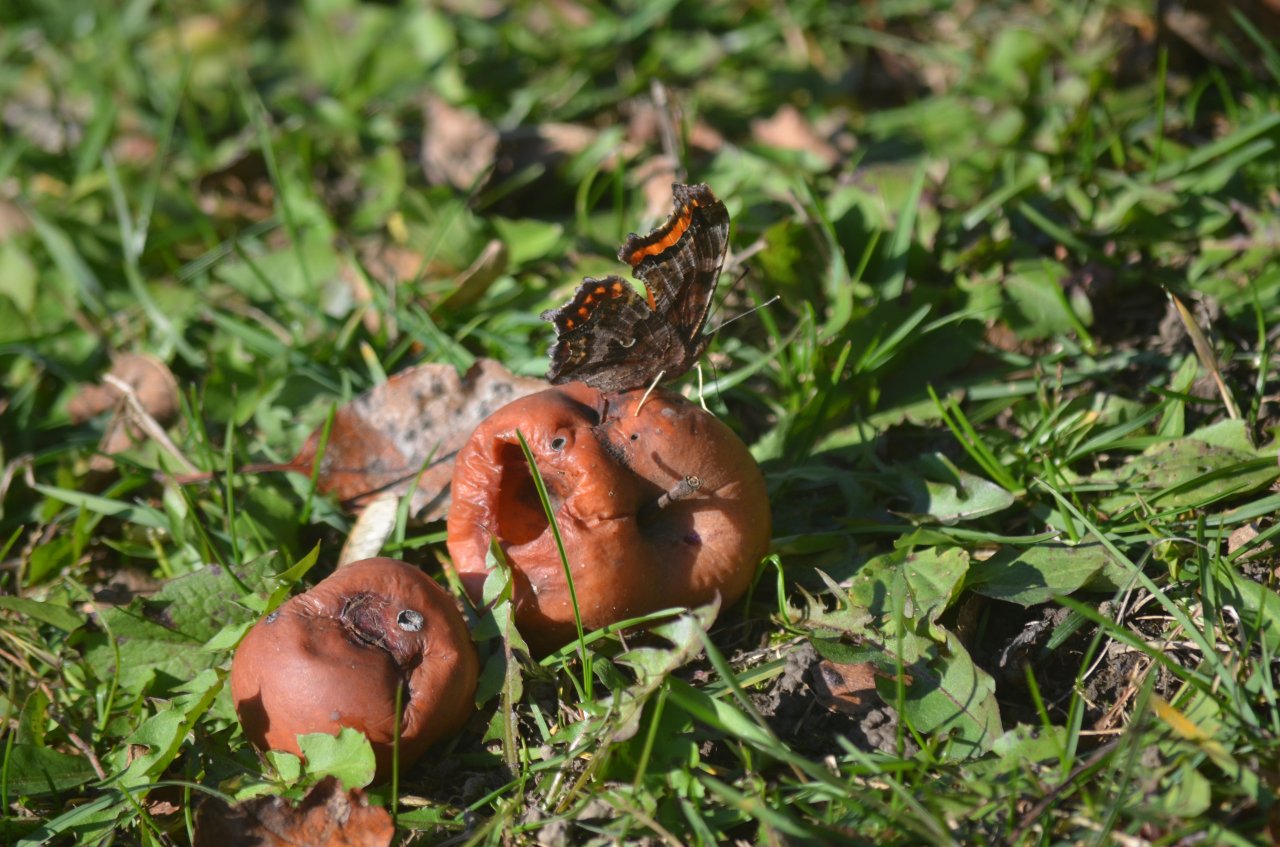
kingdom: Animalia
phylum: Arthropoda
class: Insecta
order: Lepidoptera
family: Nymphalidae
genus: Polygonia
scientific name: Polygonia comma
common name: Eastern Comma
